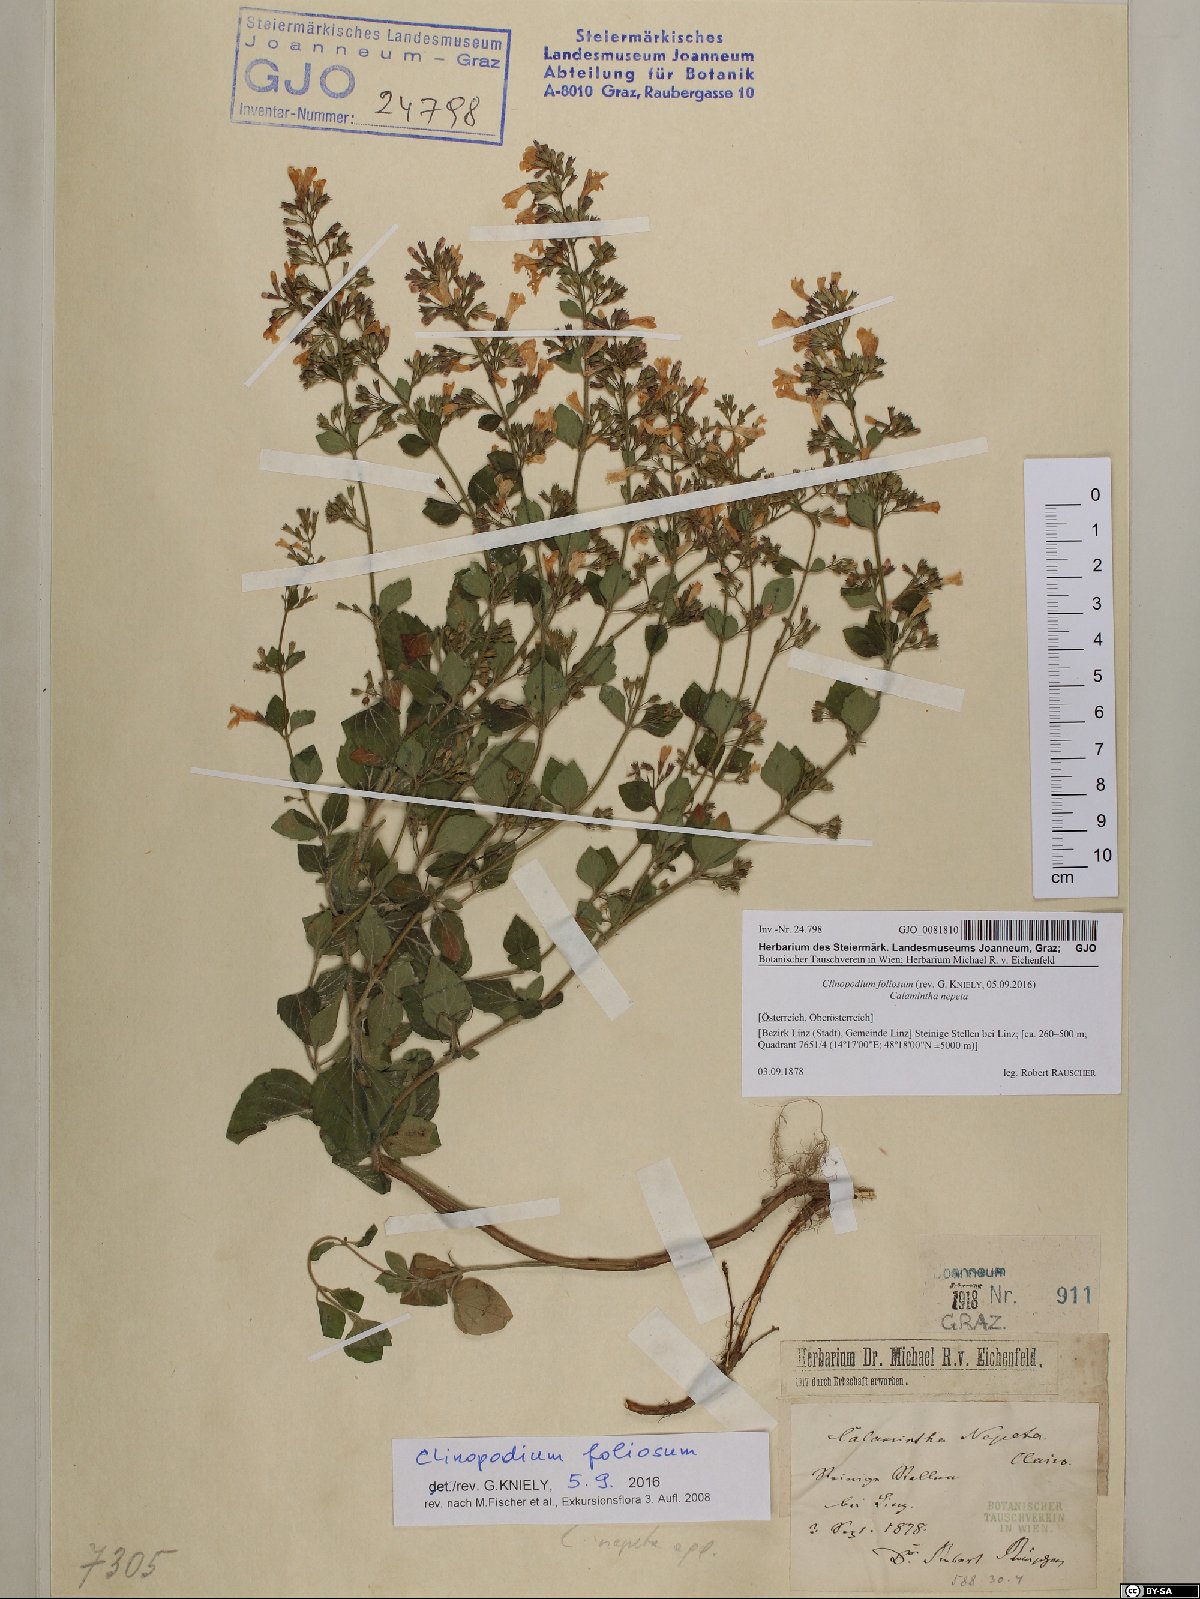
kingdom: Plantae
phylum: Tracheophyta
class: Magnoliopsida
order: Lamiales
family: Lamiaceae
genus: Clinopodium
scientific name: Clinopodium foliolosum
